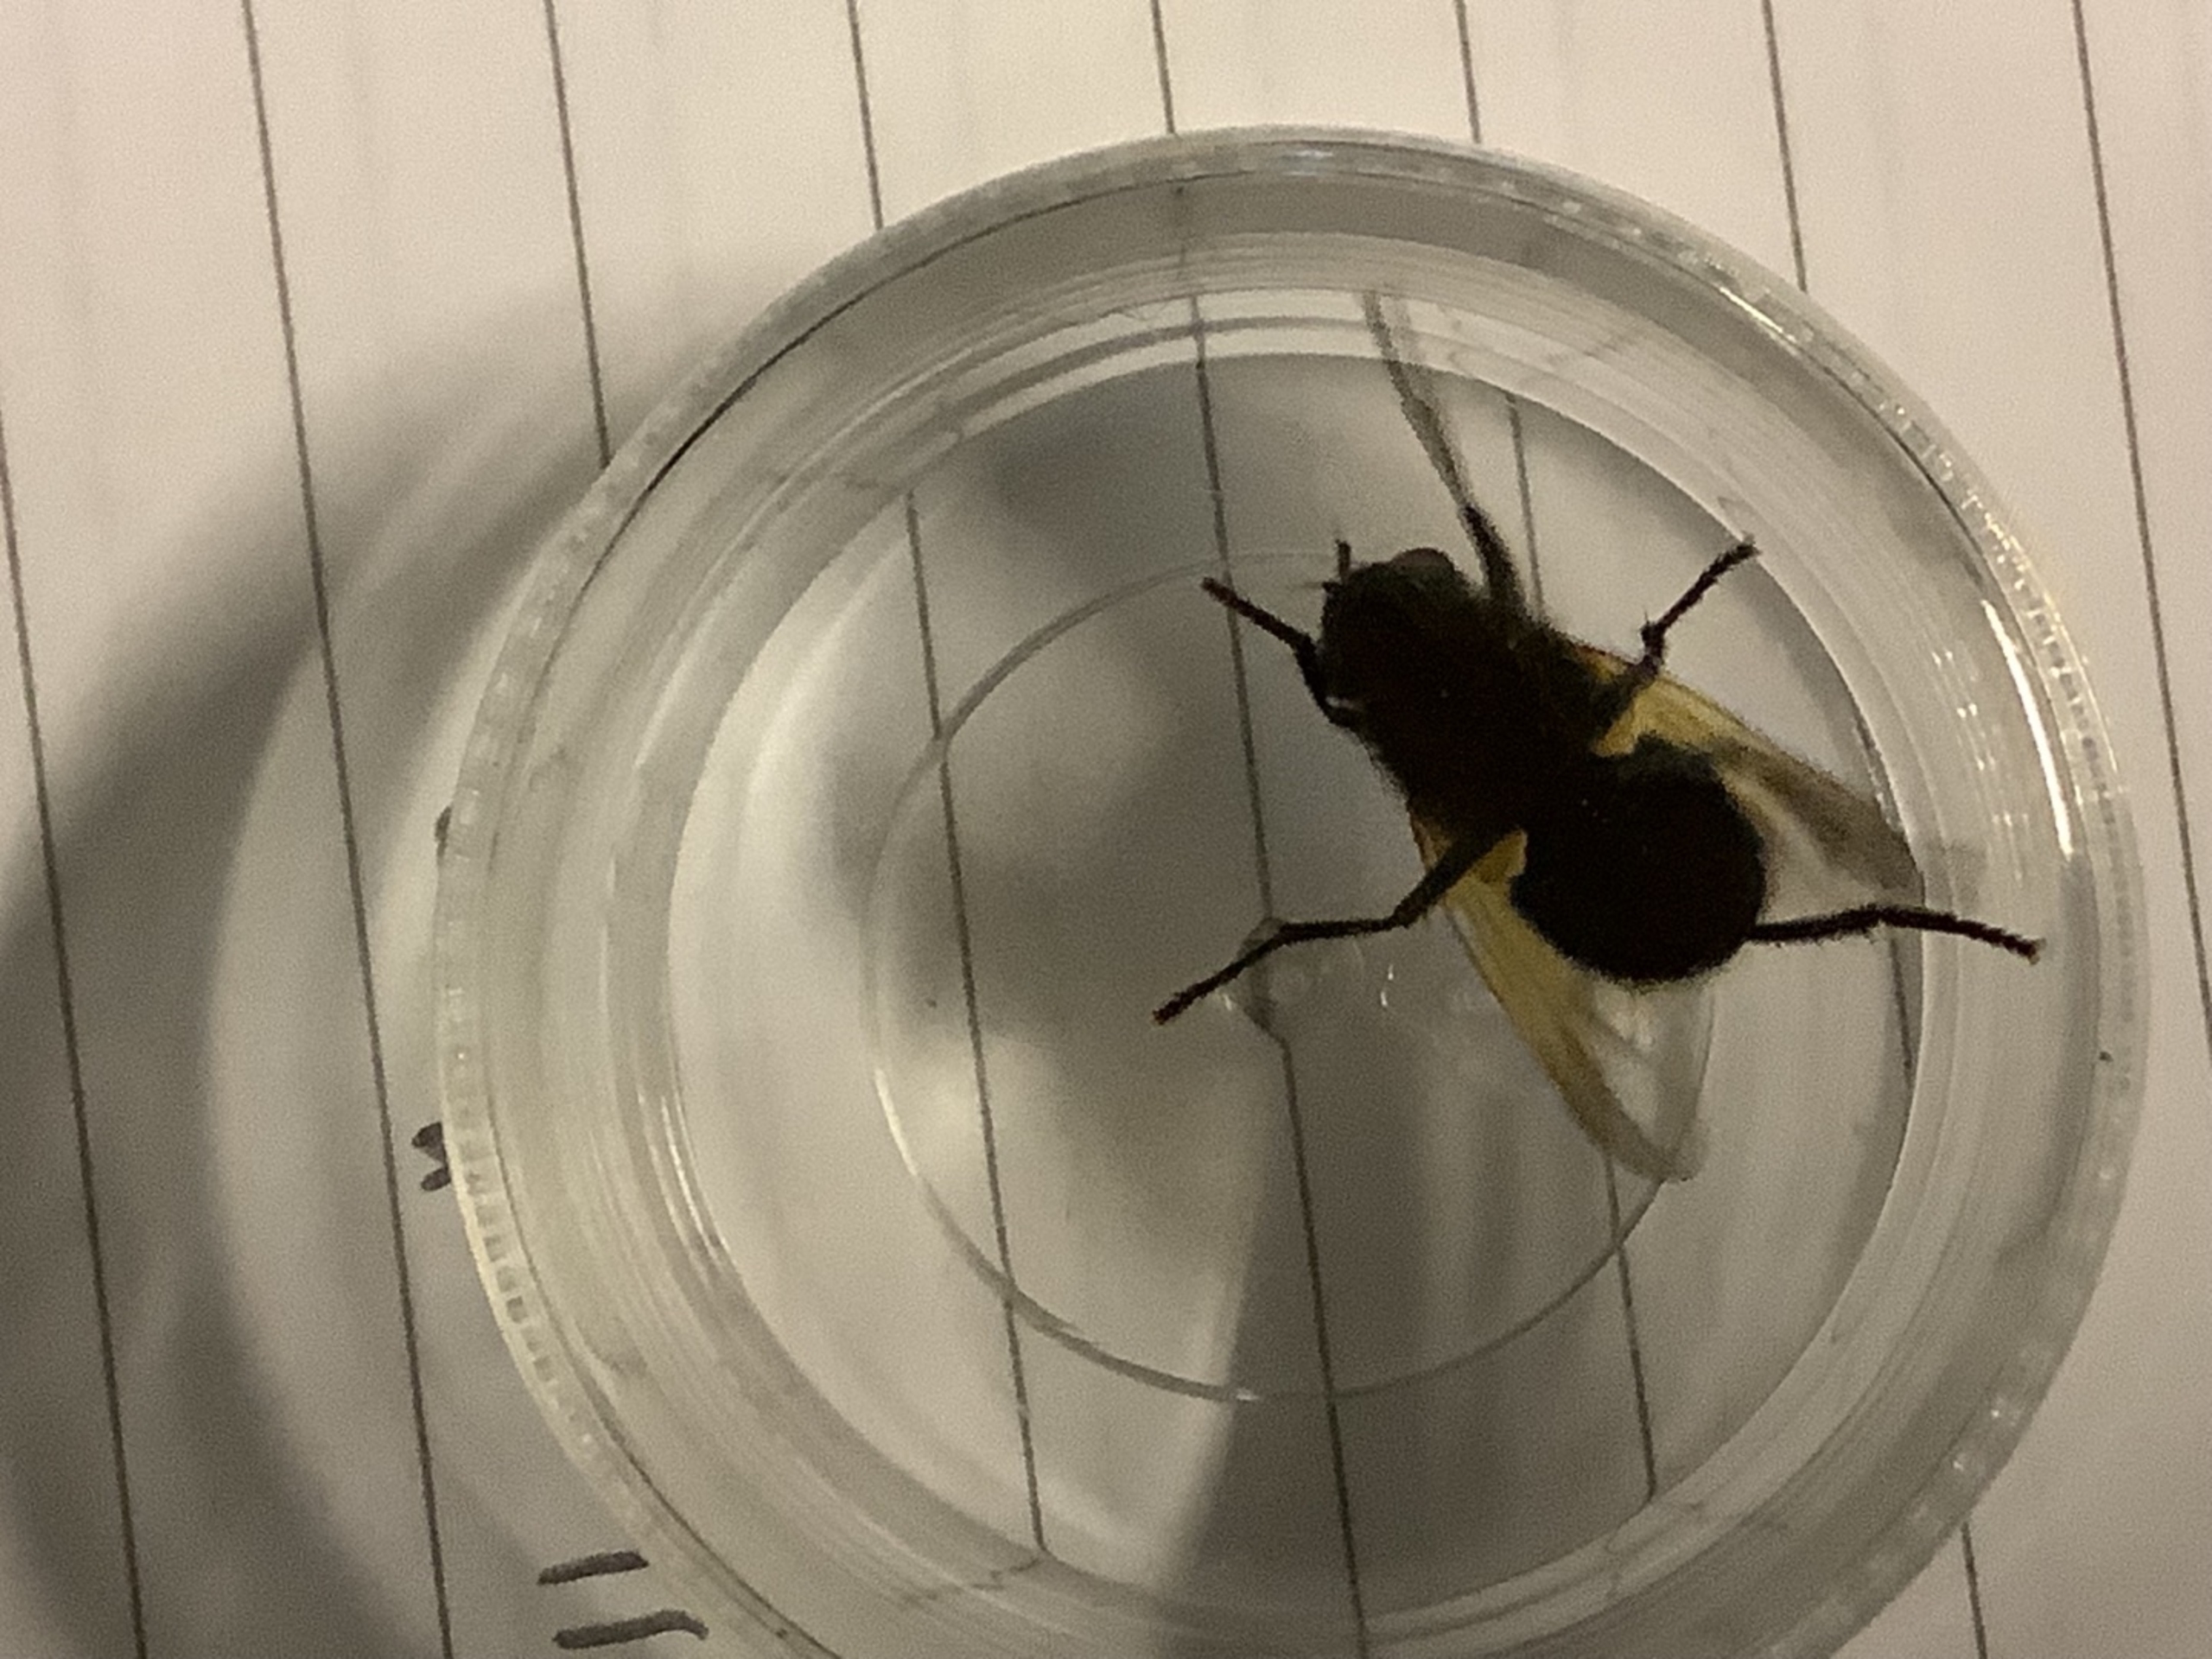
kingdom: Animalia
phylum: Arthropoda
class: Insecta
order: Diptera
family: Muscidae
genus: Mesembrina
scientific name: Mesembrina meridiana
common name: Gulvinget flue
